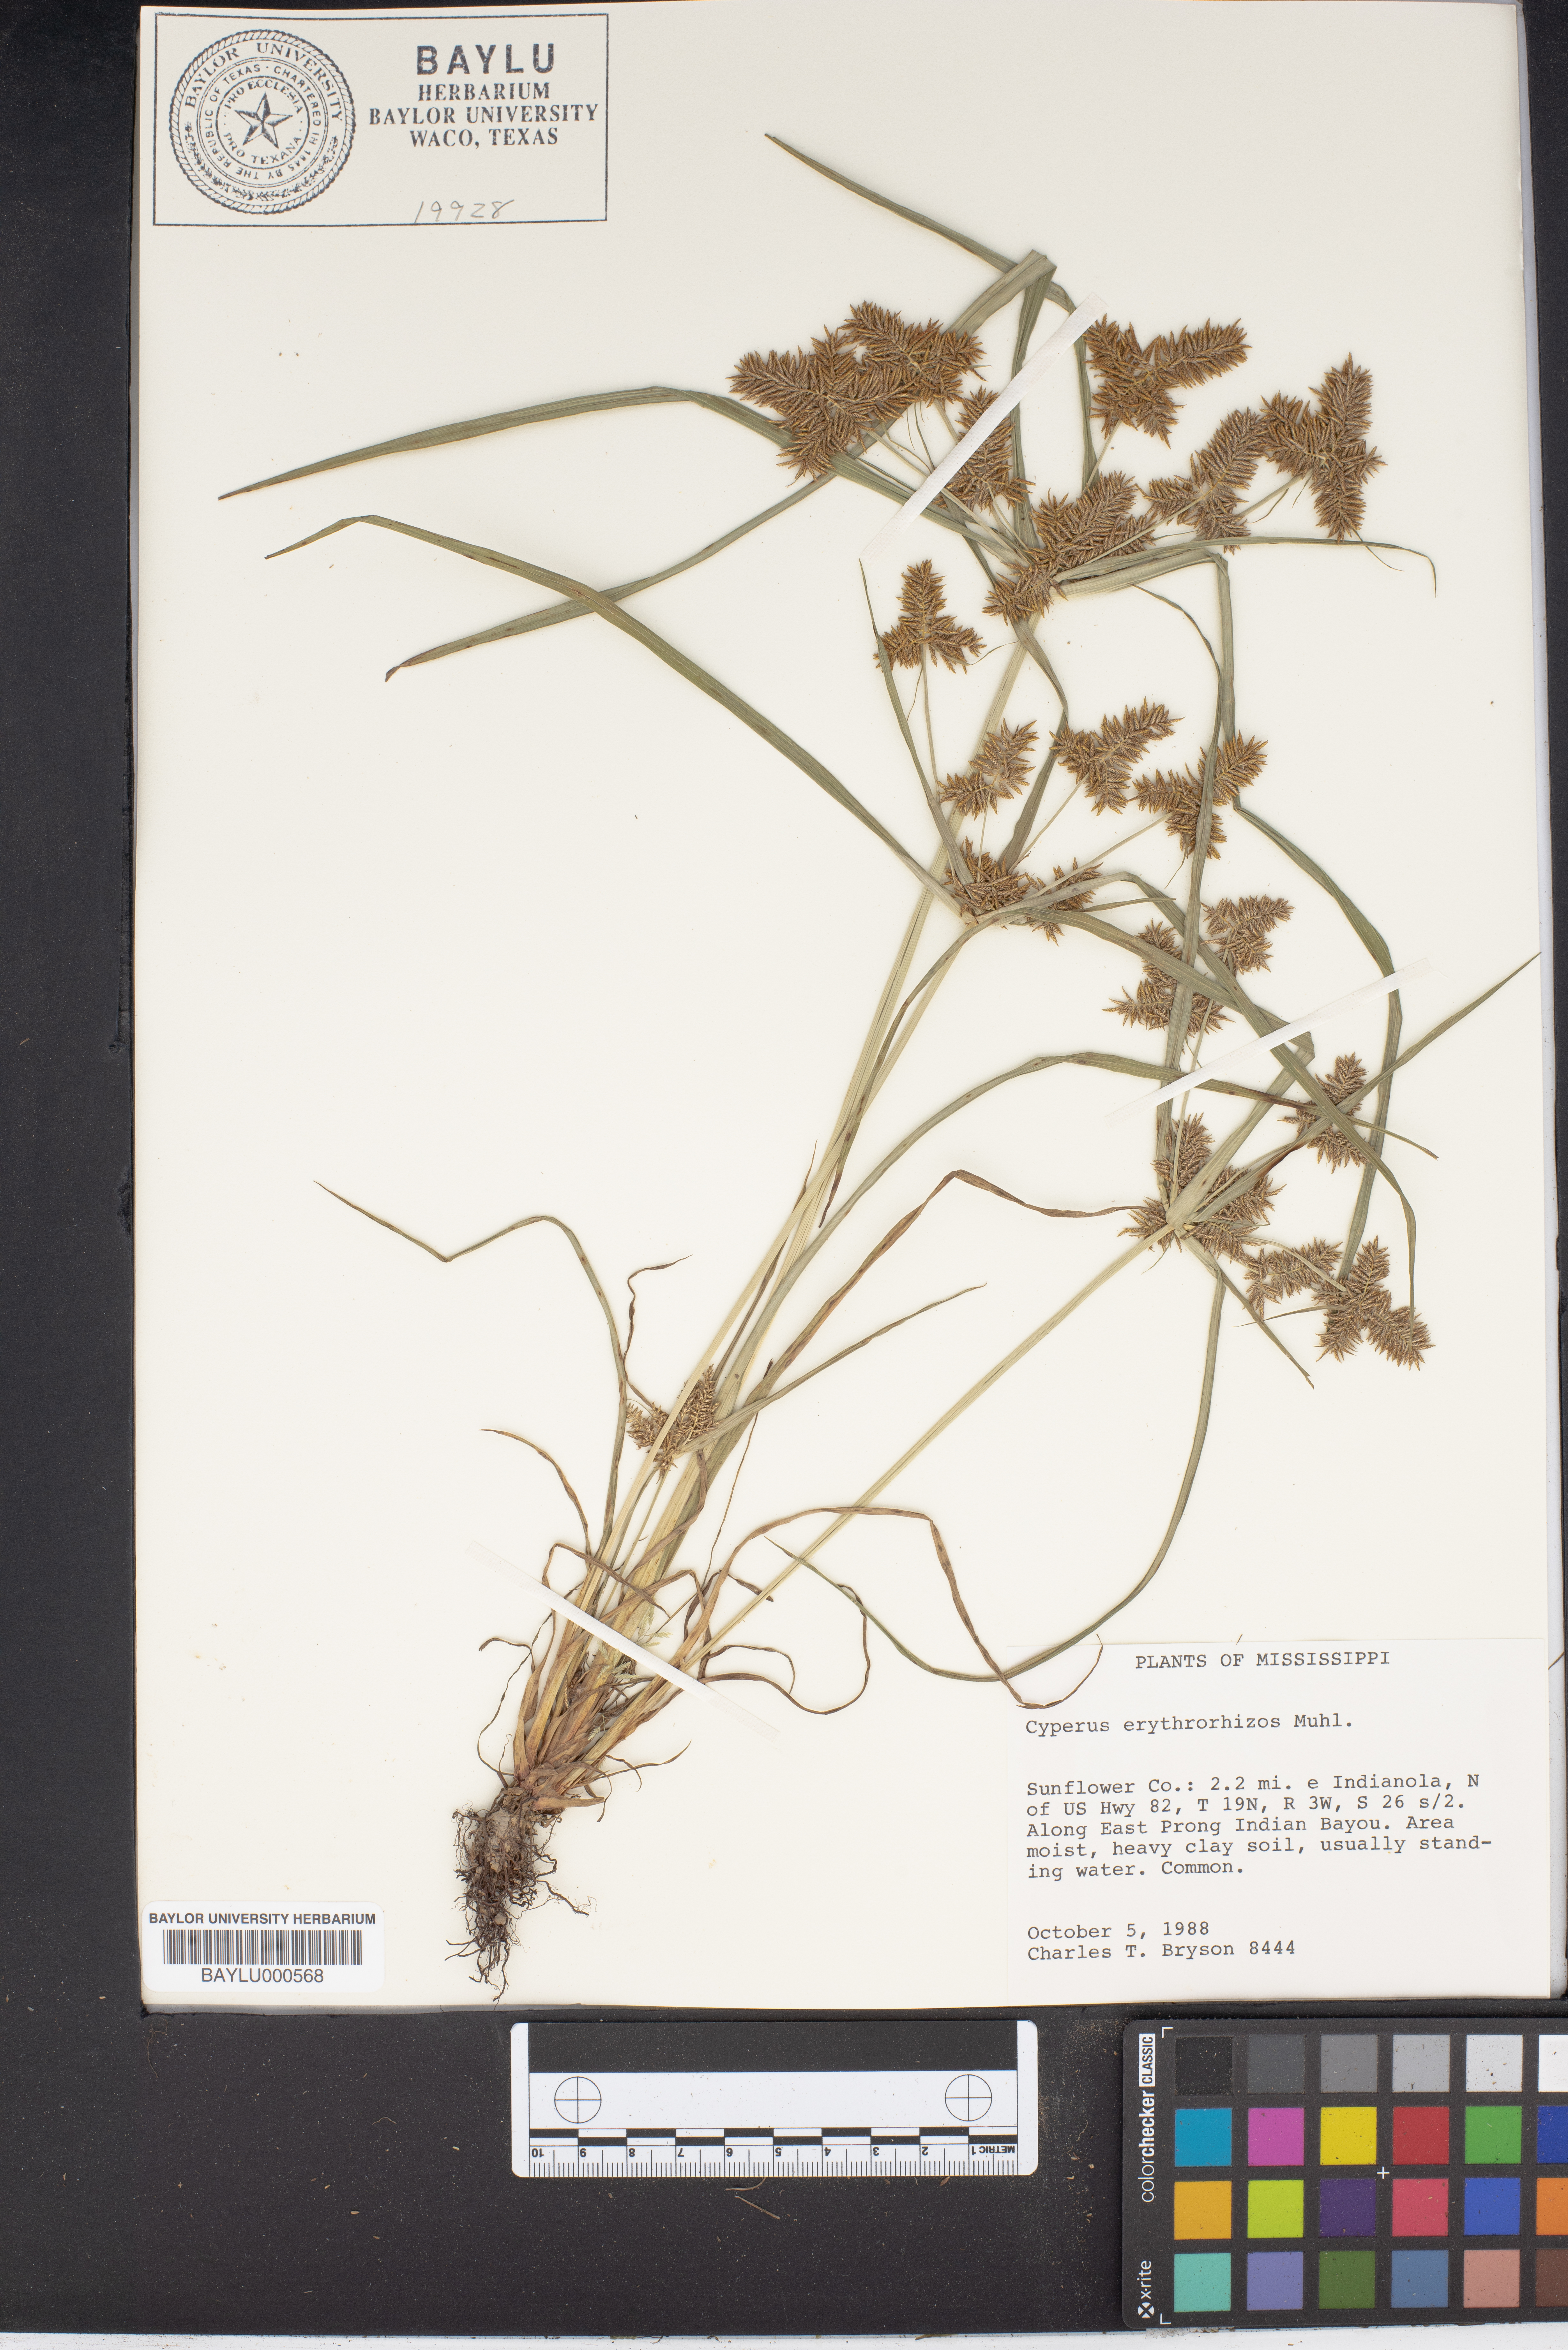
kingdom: Plantae
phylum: Tracheophyta
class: Liliopsida
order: Poales
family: Cyperaceae
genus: Cyperus
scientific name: Cyperus erythrorhizos
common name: Red-root flat sedge
